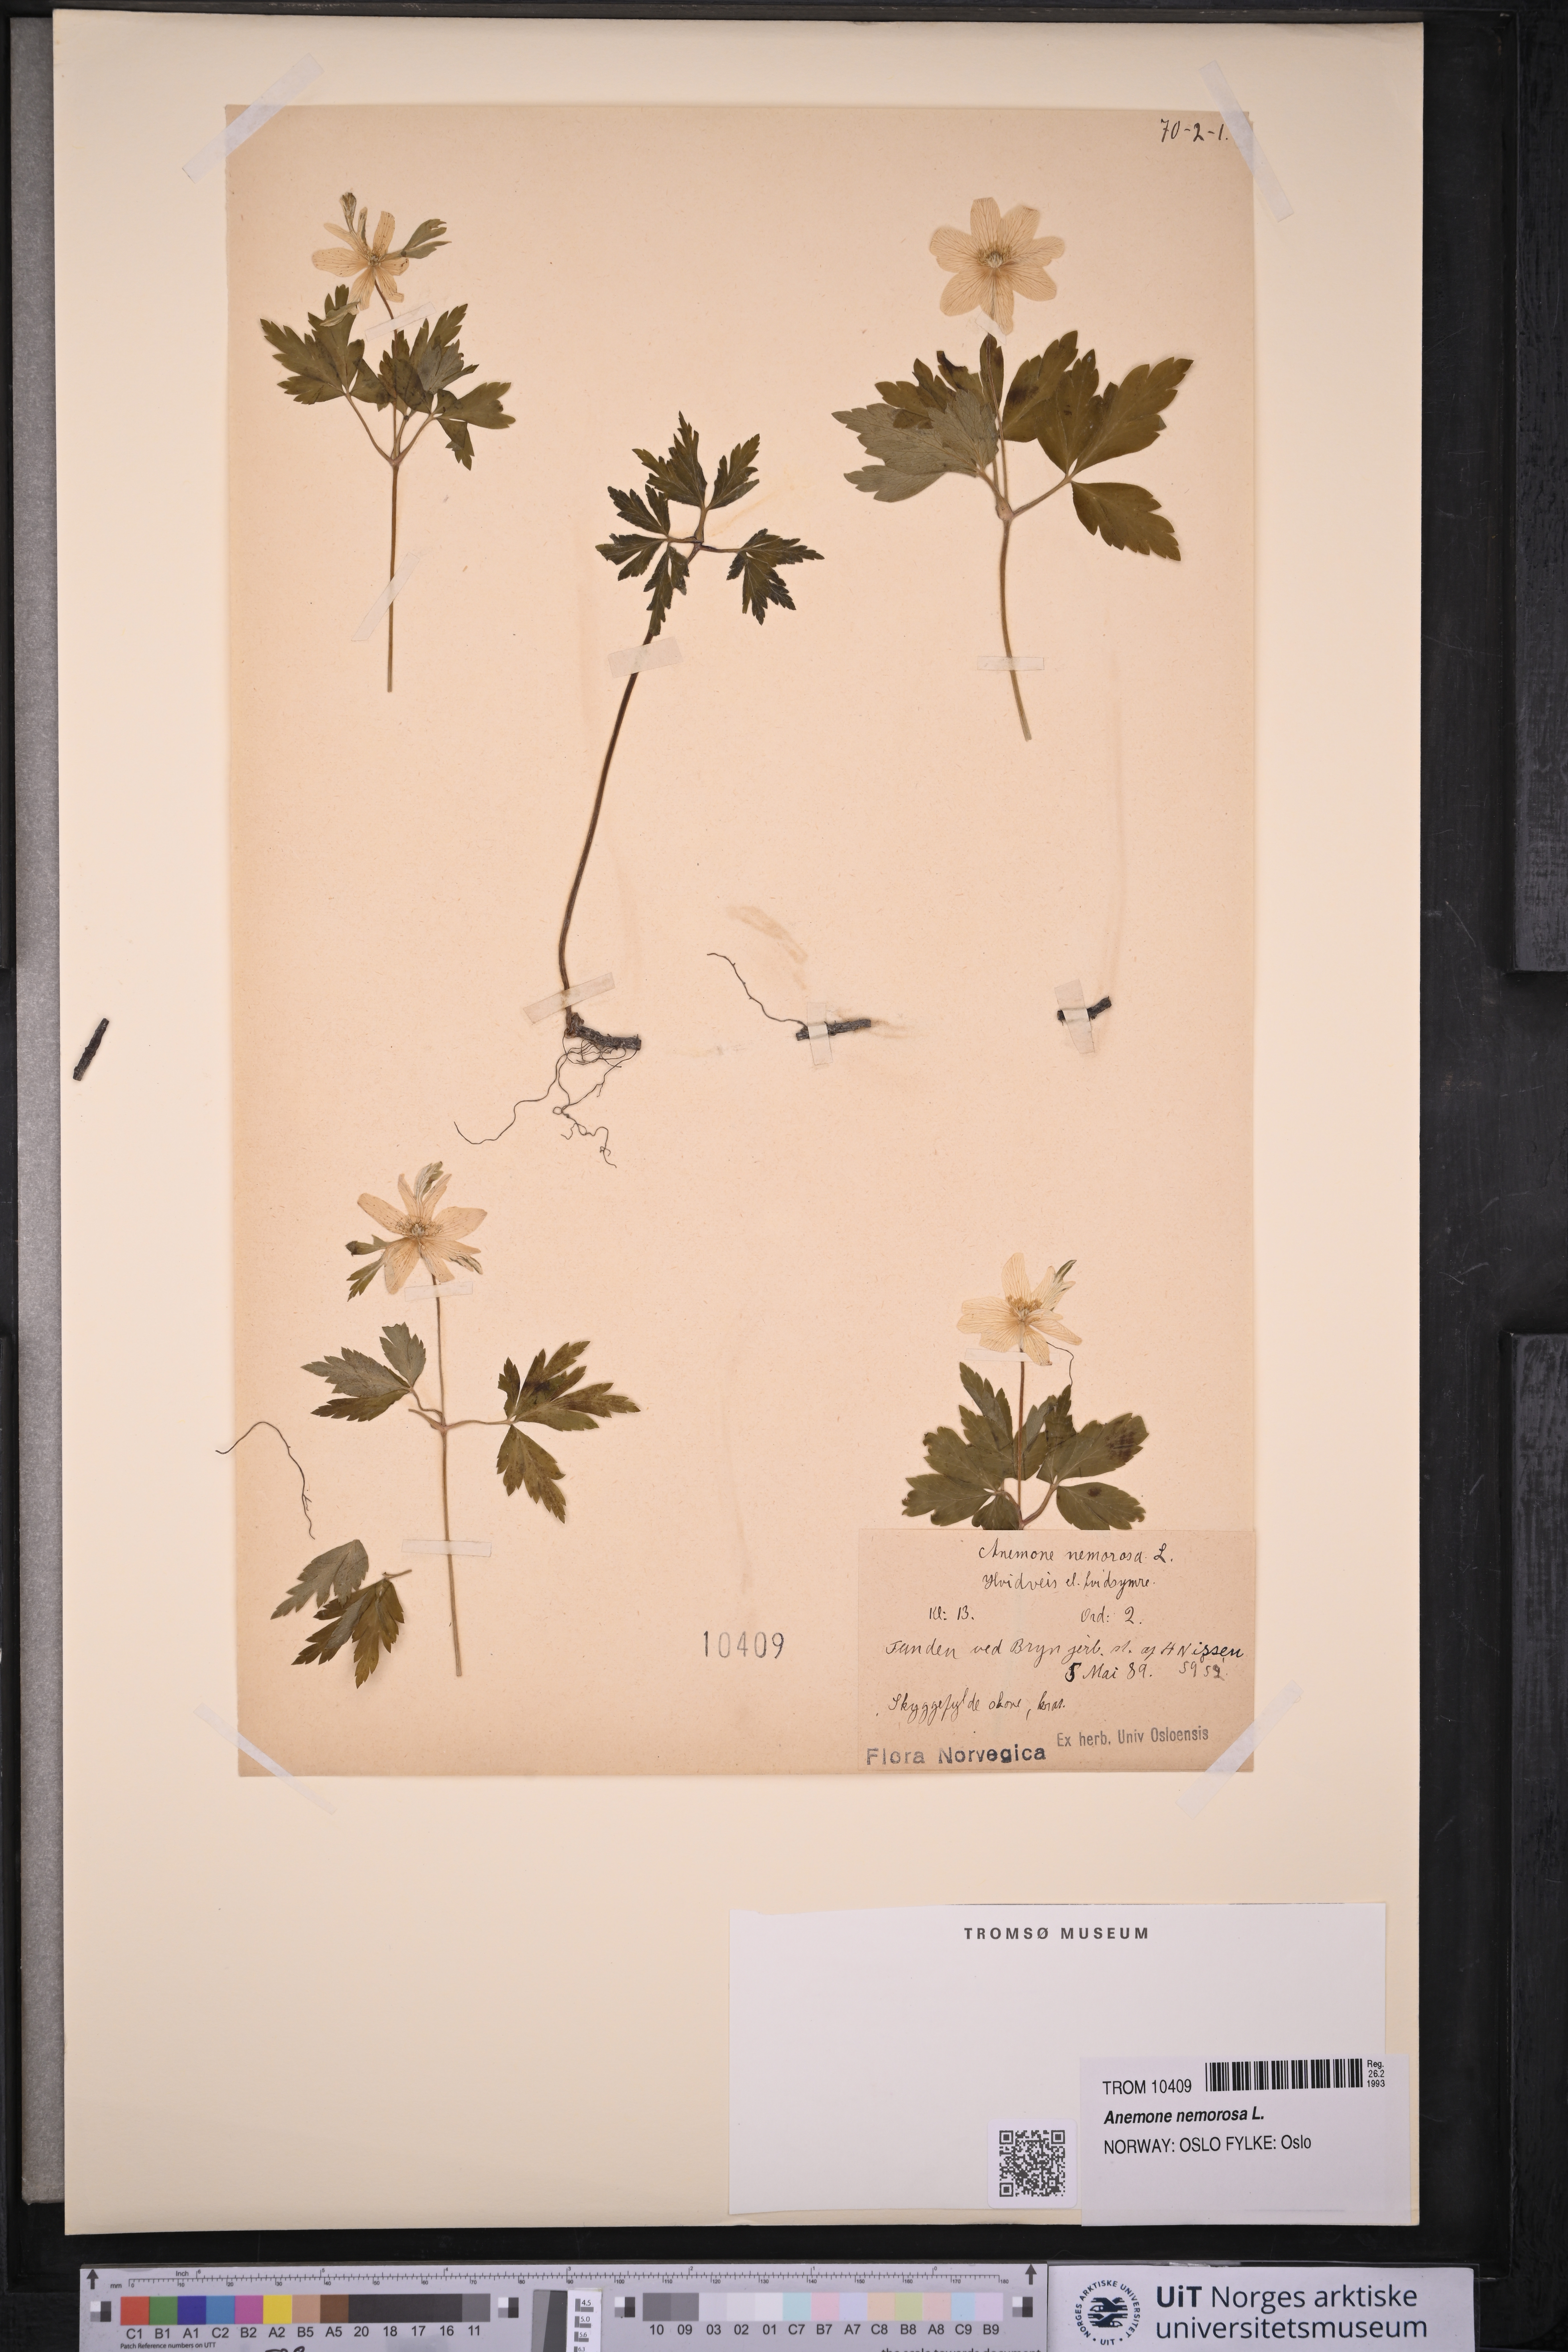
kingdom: Plantae
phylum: Tracheophyta
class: Magnoliopsida
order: Ranunculales
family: Ranunculaceae
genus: Anemone
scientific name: Anemone nemorosa
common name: Wood anemone
